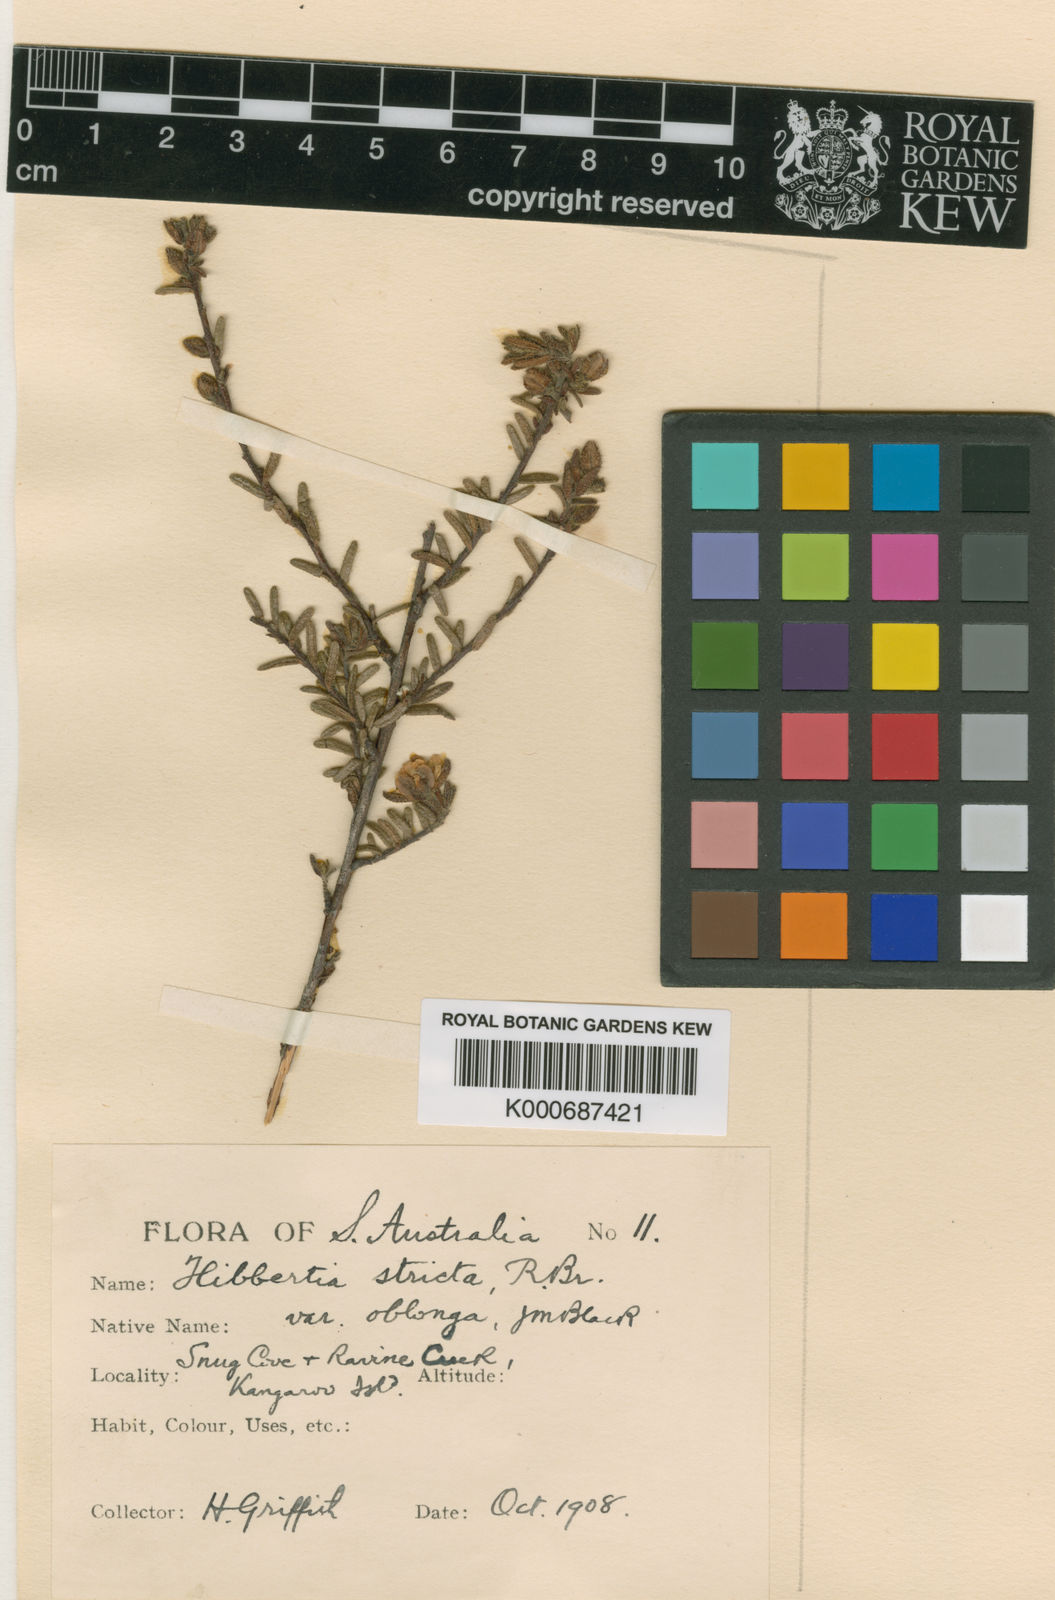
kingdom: Plantae
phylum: Tracheophyta
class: Magnoliopsida
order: Dilleniales
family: Dilleniaceae
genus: Hibbertia
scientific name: Hibbertia glebosa
